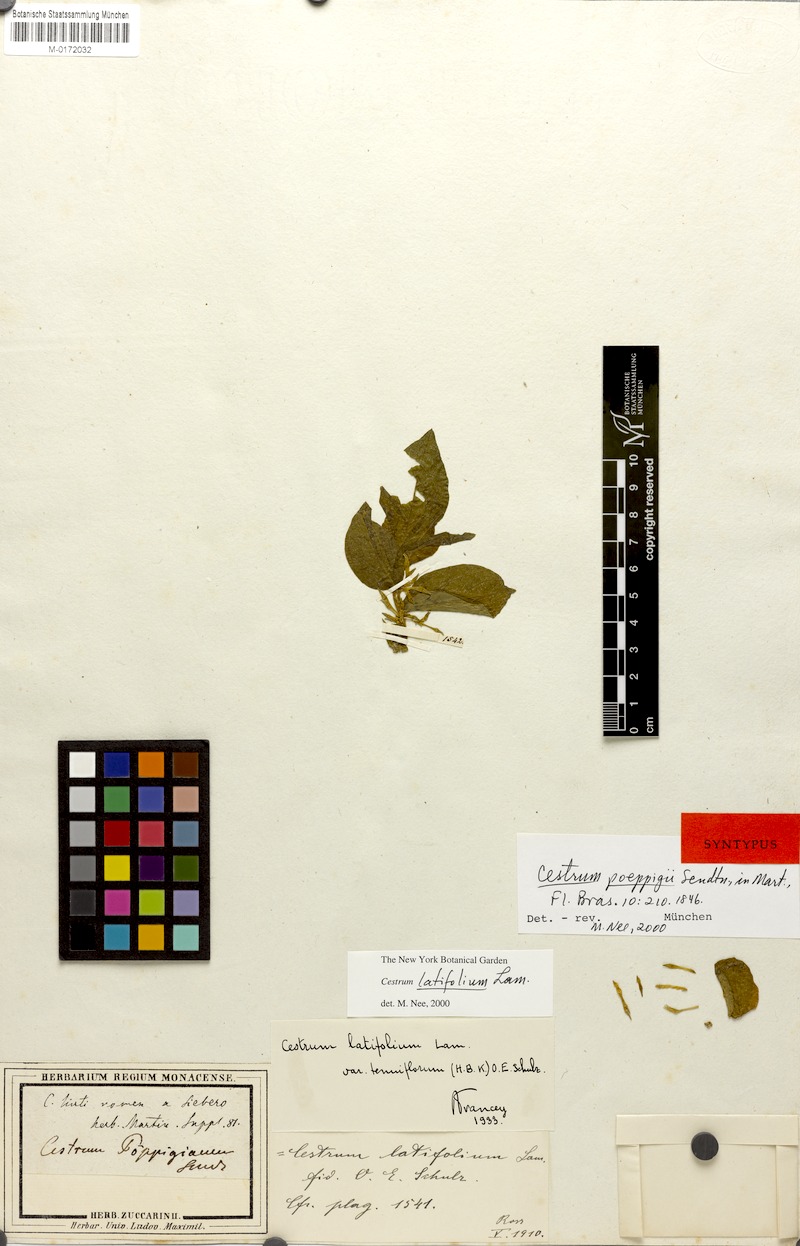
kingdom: Plantae
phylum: Tracheophyta
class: Magnoliopsida
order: Solanales
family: Solanaceae
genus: Cestrum
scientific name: Cestrum latifolium
